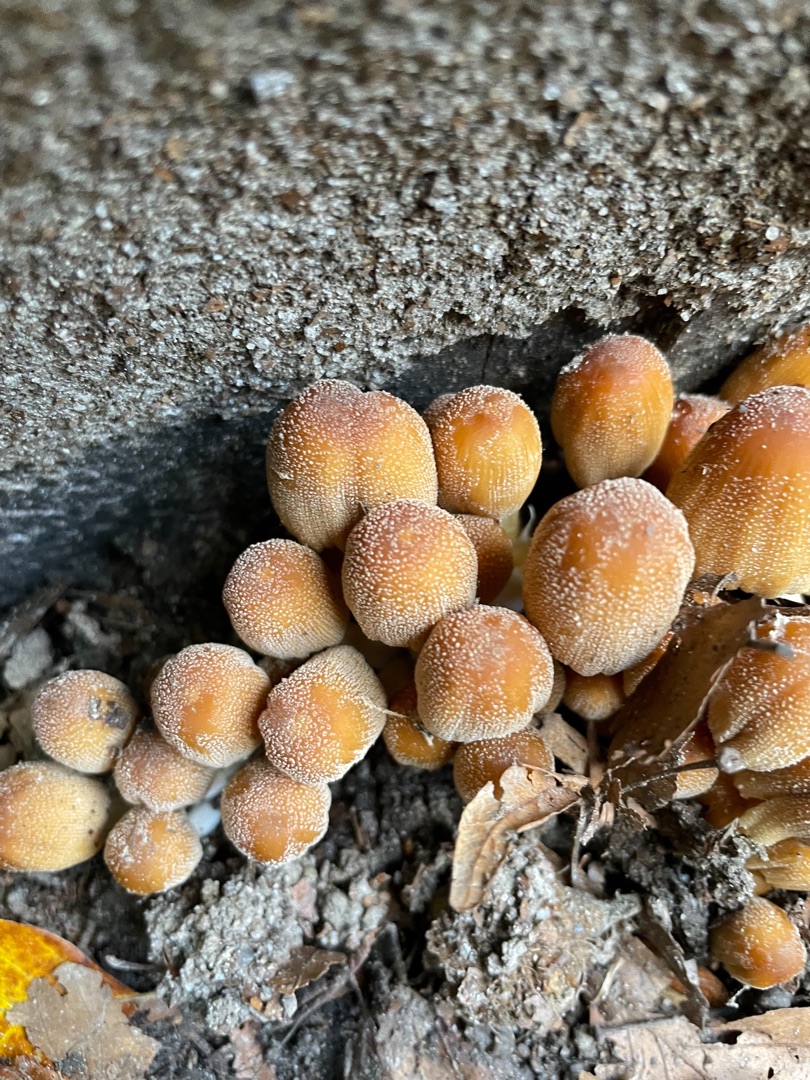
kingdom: Fungi
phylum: Basidiomycota
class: Agaricomycetes
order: Agaricales
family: Psathyrellaceae
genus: Coprinellus
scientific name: Coprinellus micaceus
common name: Glimmer-blækhat
